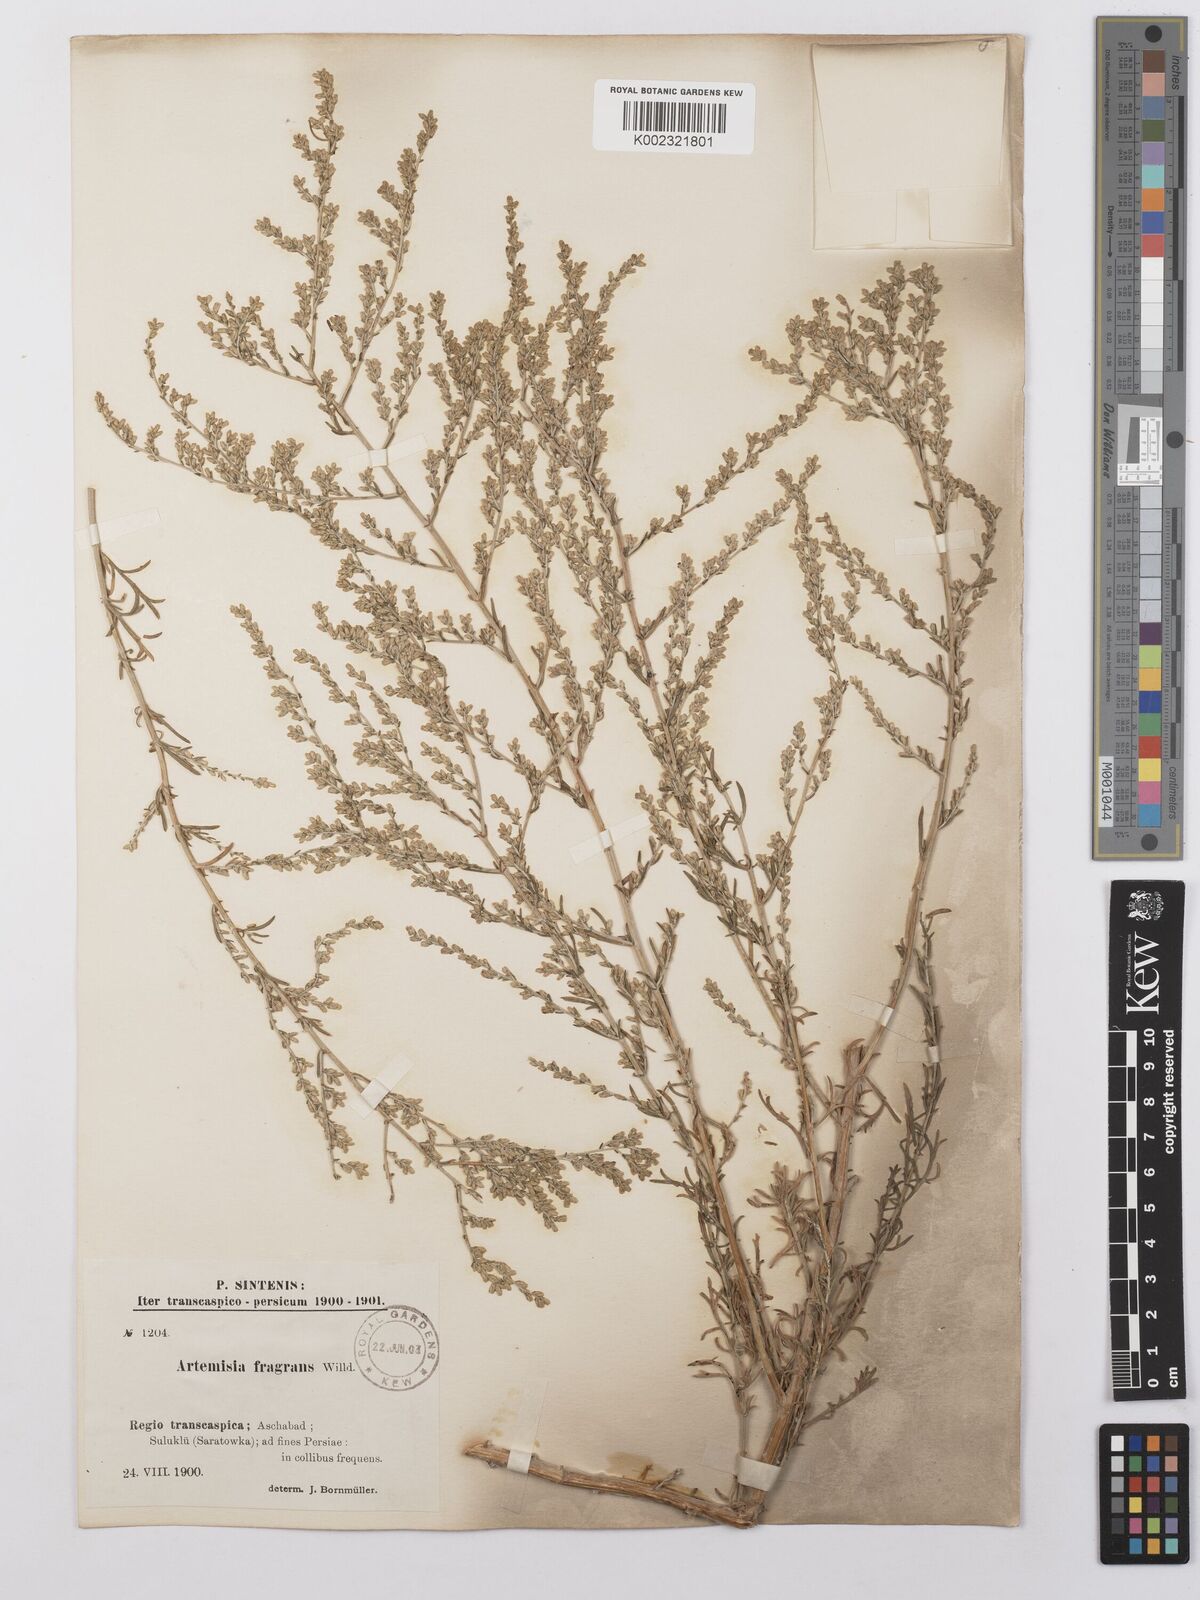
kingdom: Plantae
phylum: Tracheophyta
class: Magnoliopsida
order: Asterales
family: Asteraceae
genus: Artemisia
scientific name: Artemisia fragrans
